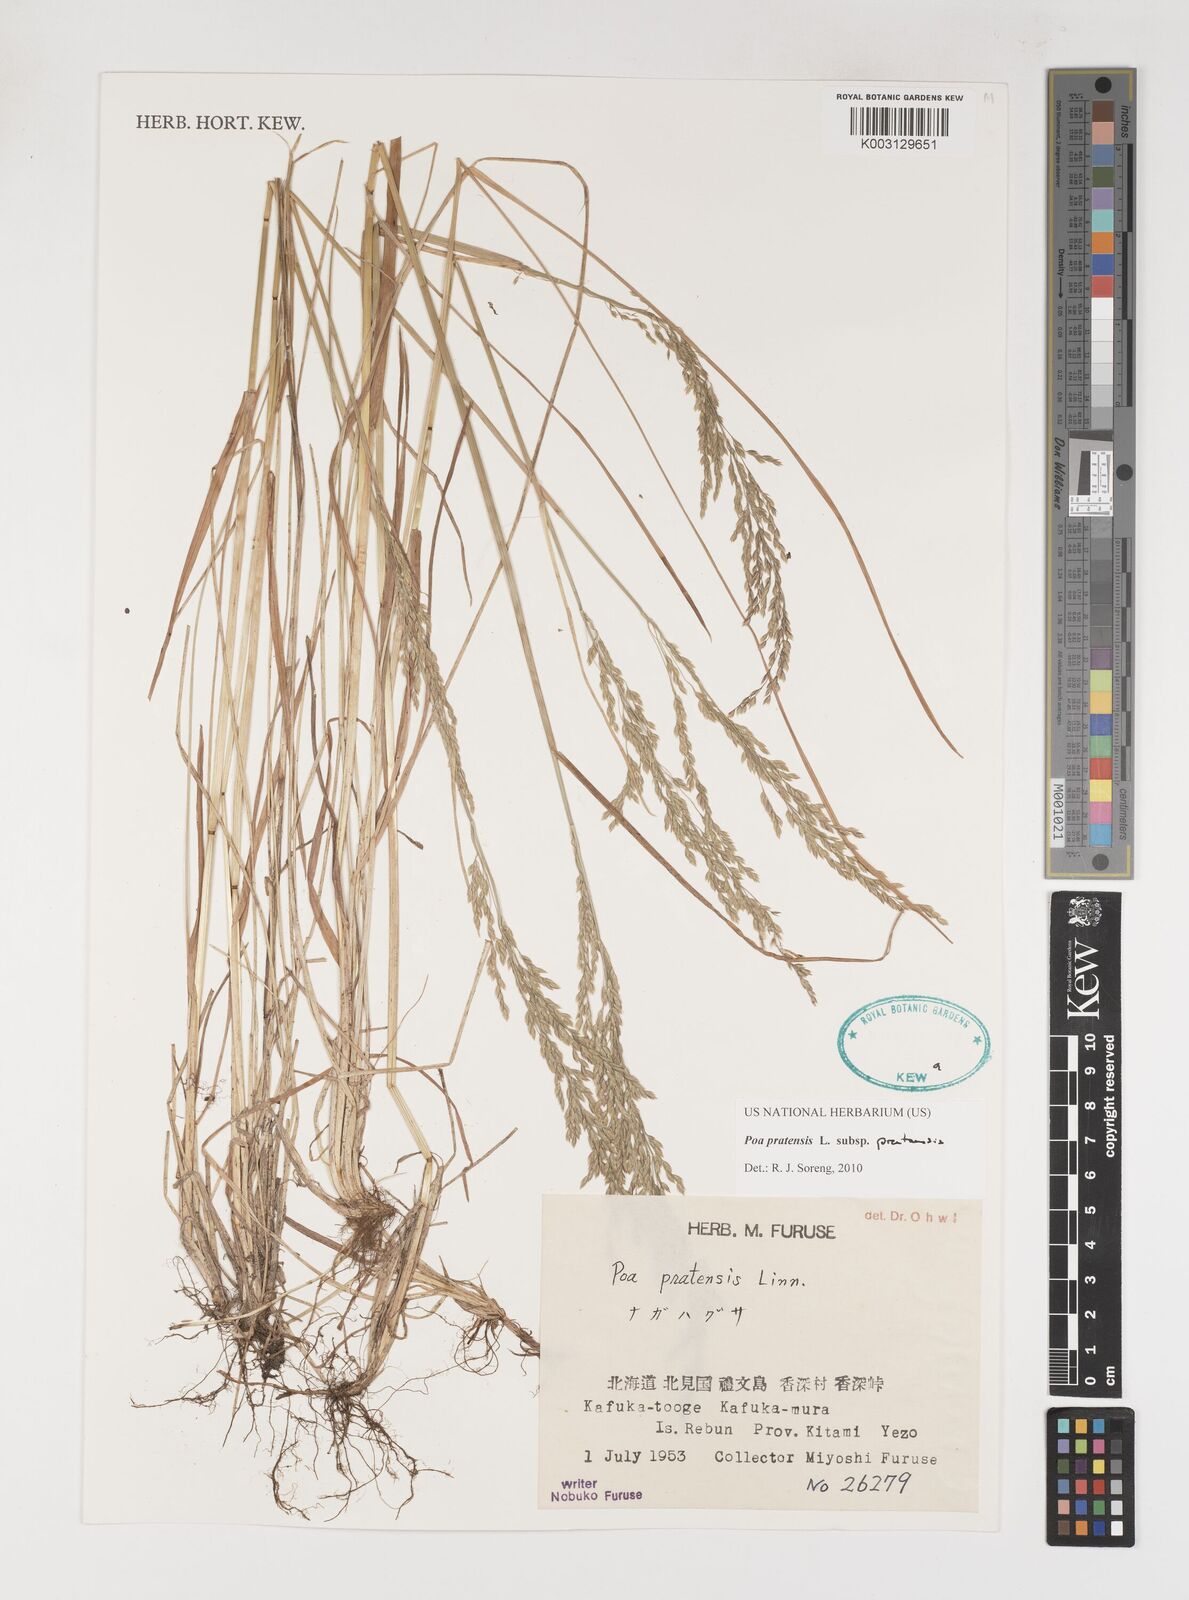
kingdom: Plantae
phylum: Tracheophyta
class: Liliopsida
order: Poales
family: Poaceae
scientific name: Poaceae
